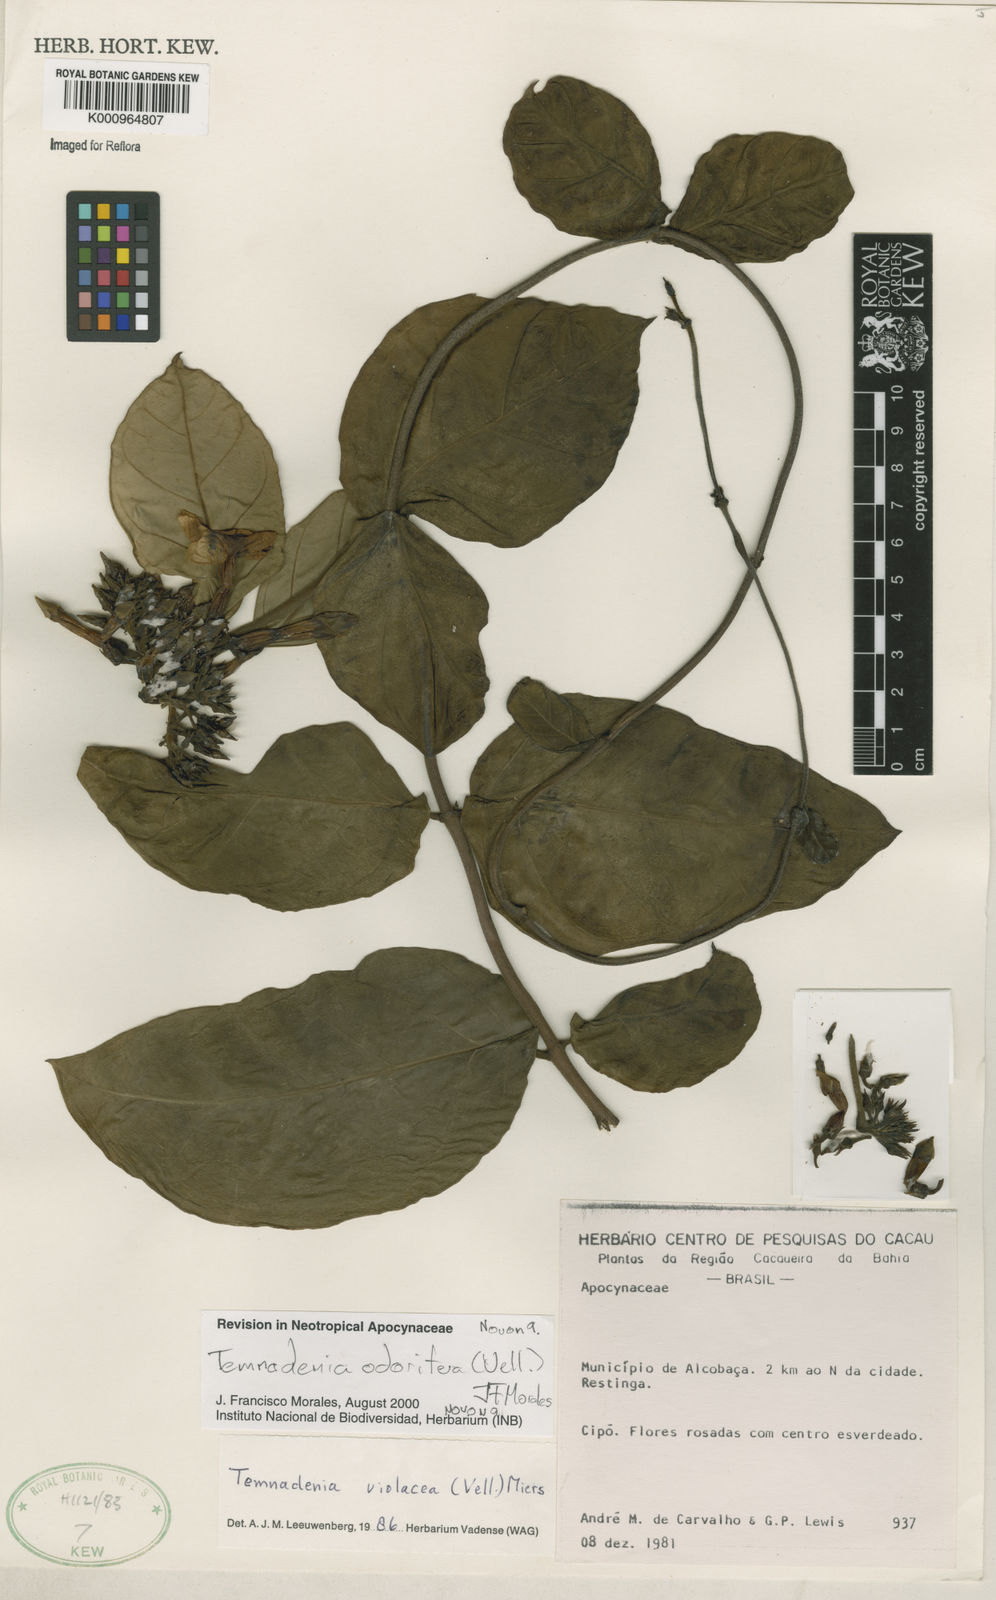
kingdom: Plantae
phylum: Tracheophyta
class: Magnoliopsida
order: Gentianales
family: Apocynaceae
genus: Temnadenia
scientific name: Temnadenia odorifera
